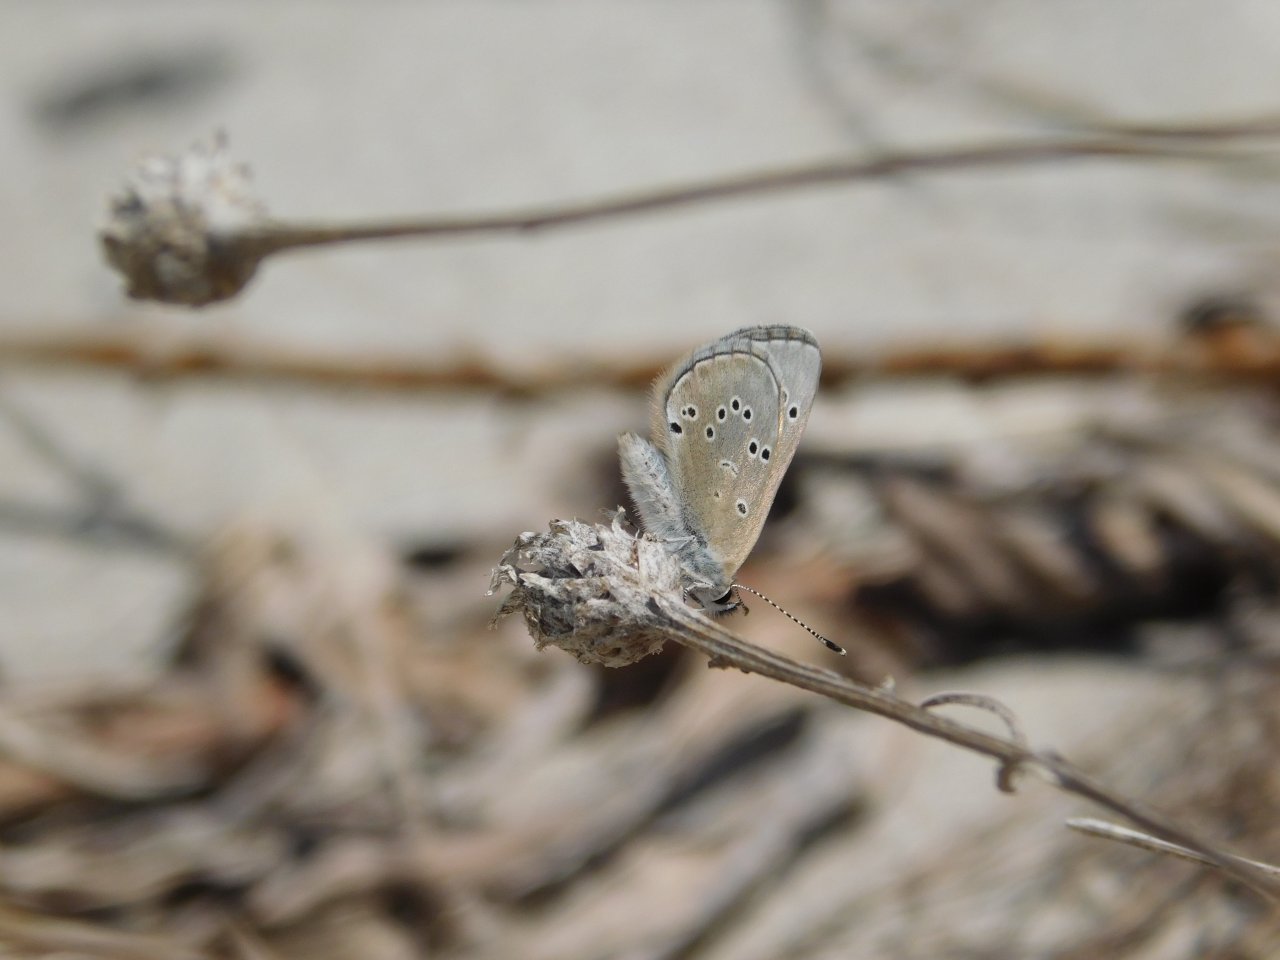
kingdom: Animalia
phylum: Arthropoda
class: Insecta
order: Lepidoptera
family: Lycaenidae
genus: Glaucopsyche
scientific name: Glaucopsyche lygdamus
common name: Silvery Blue
